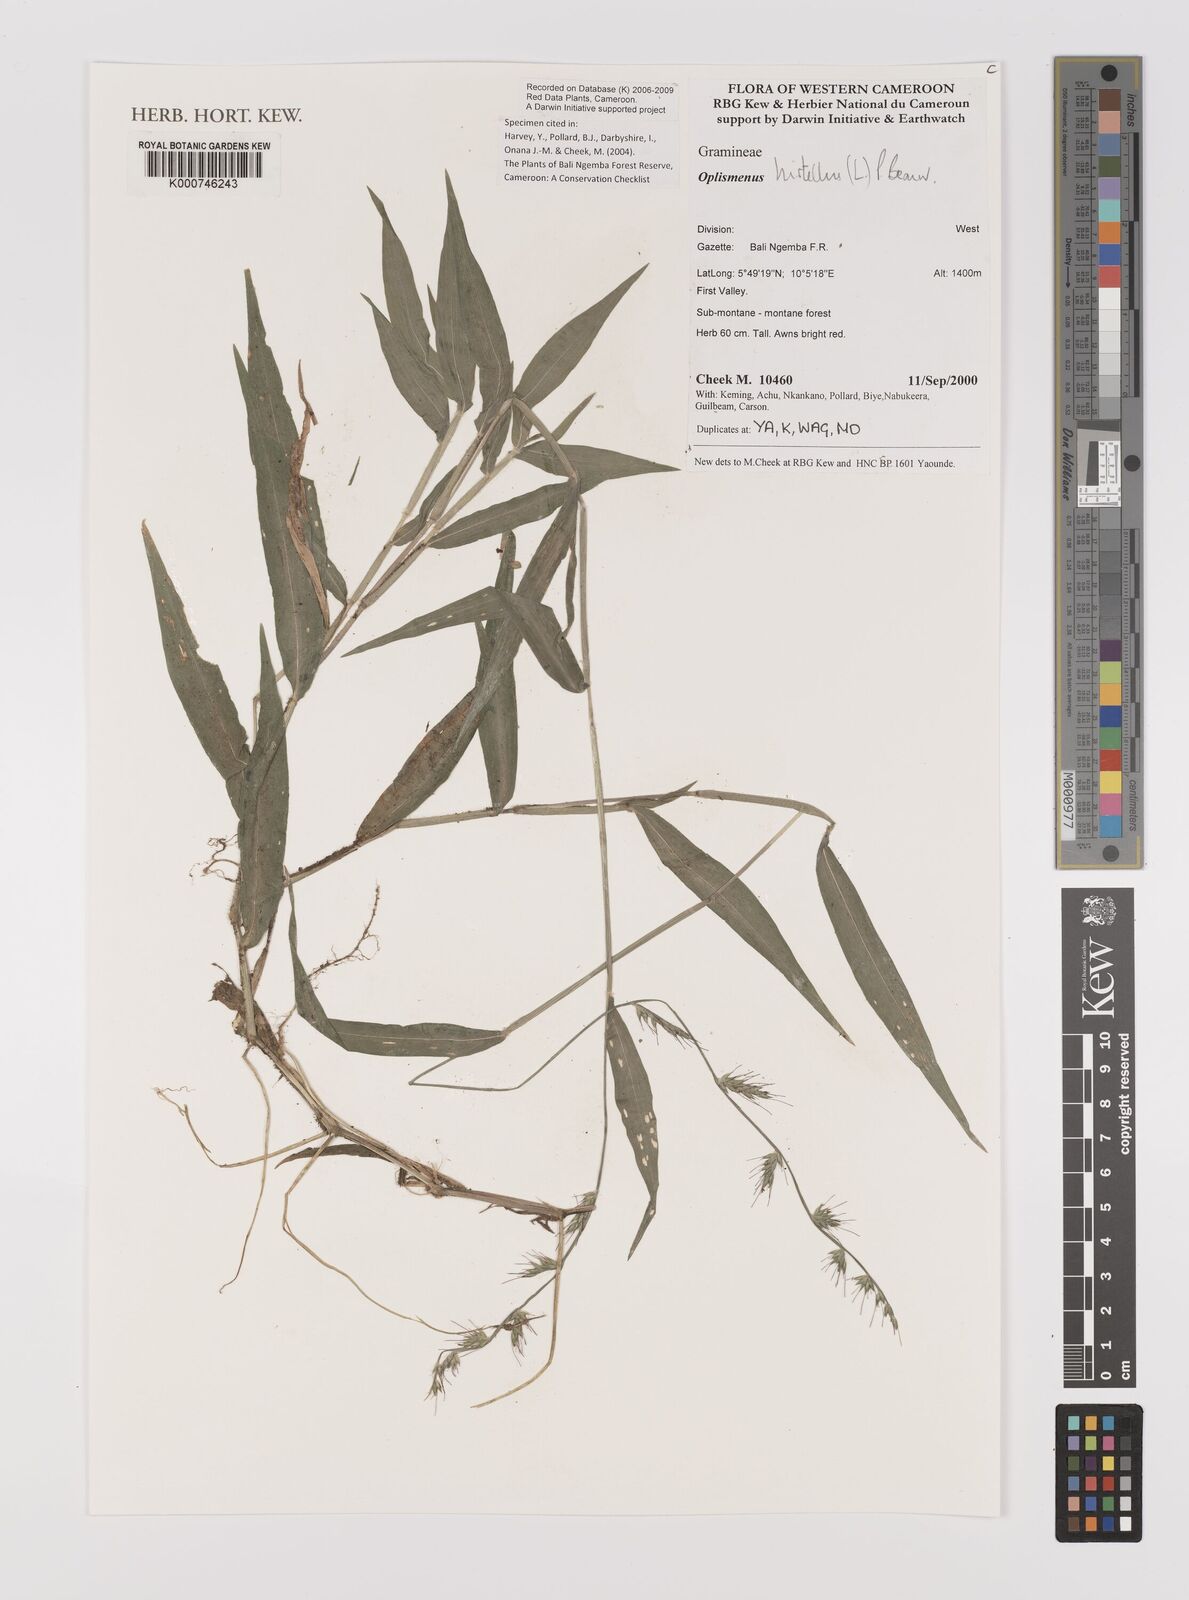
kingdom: Plantae
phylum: Tracheophyta
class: Liliopsida
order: Poales
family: Poaceae
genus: Oplismenus
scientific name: Oplismenus hirtellus
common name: Basketgrass
